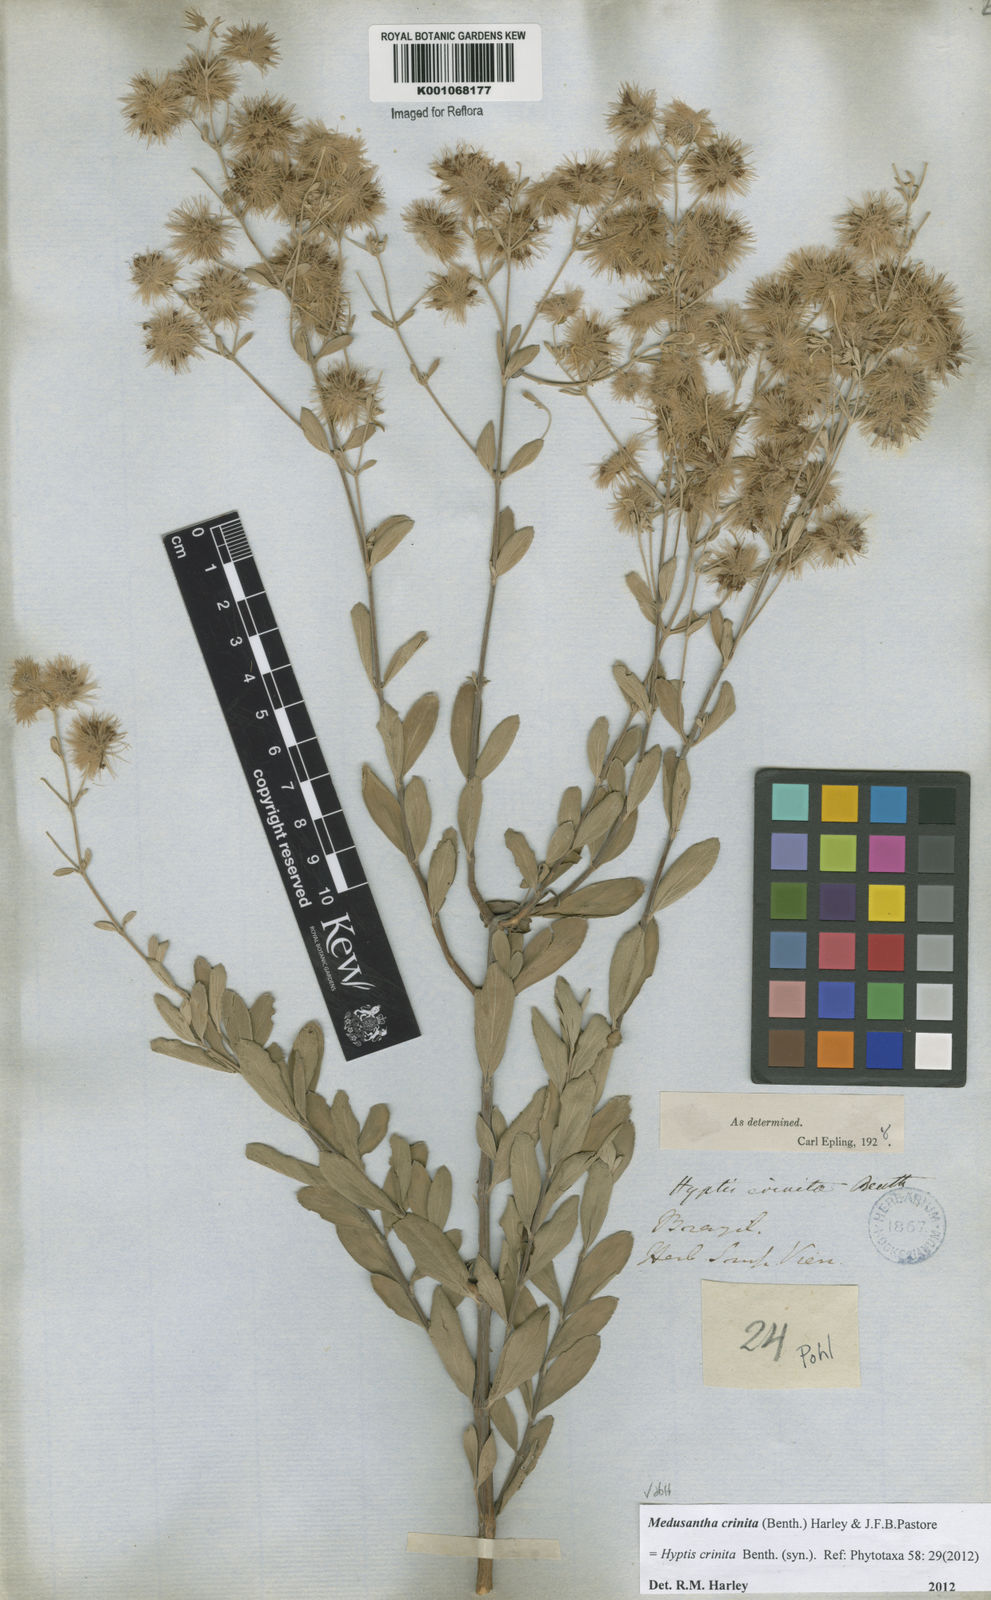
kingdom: Plantae
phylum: Tracheophyta
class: Magnoliopsida
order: Lamiales
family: Lamiaceae
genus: Medusantha
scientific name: Medusantha crinita
